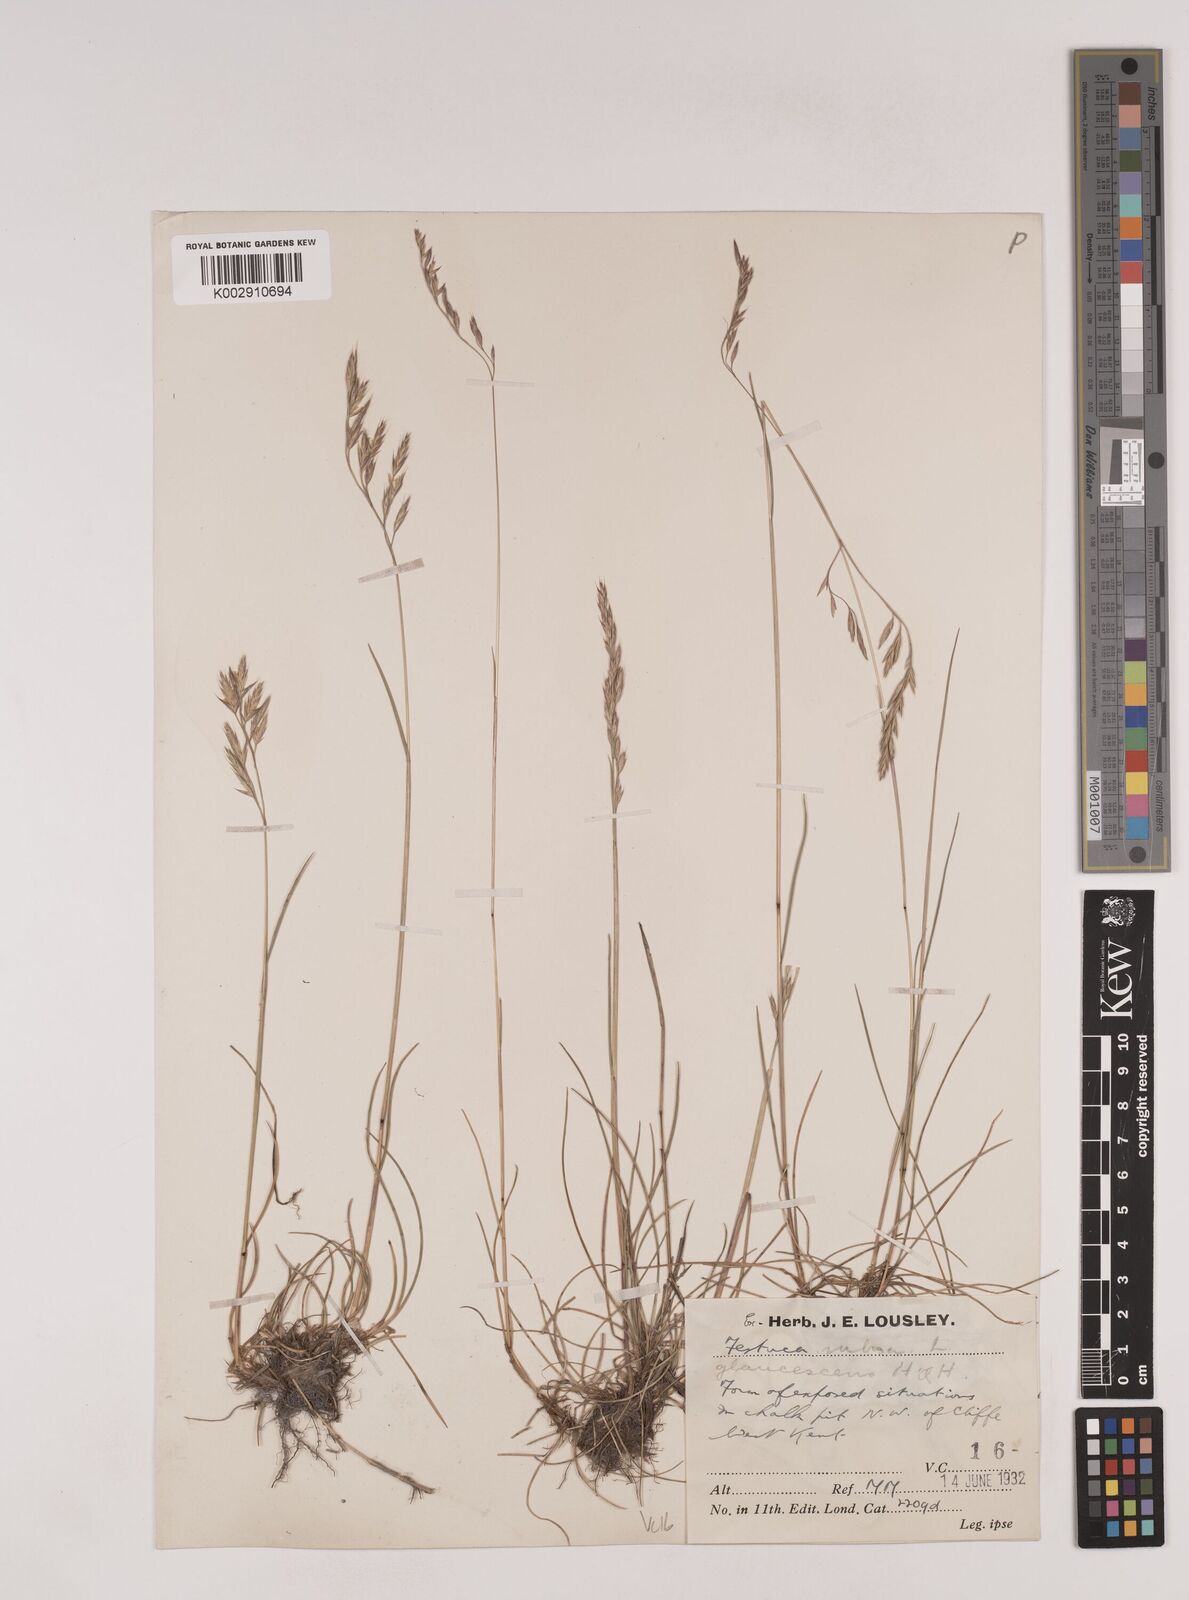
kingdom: Plantae
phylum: Tracheophyta
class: Liliopsida
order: Poales
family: Poaceae
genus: Festuca
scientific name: Festuca rubra
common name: Red fescue
